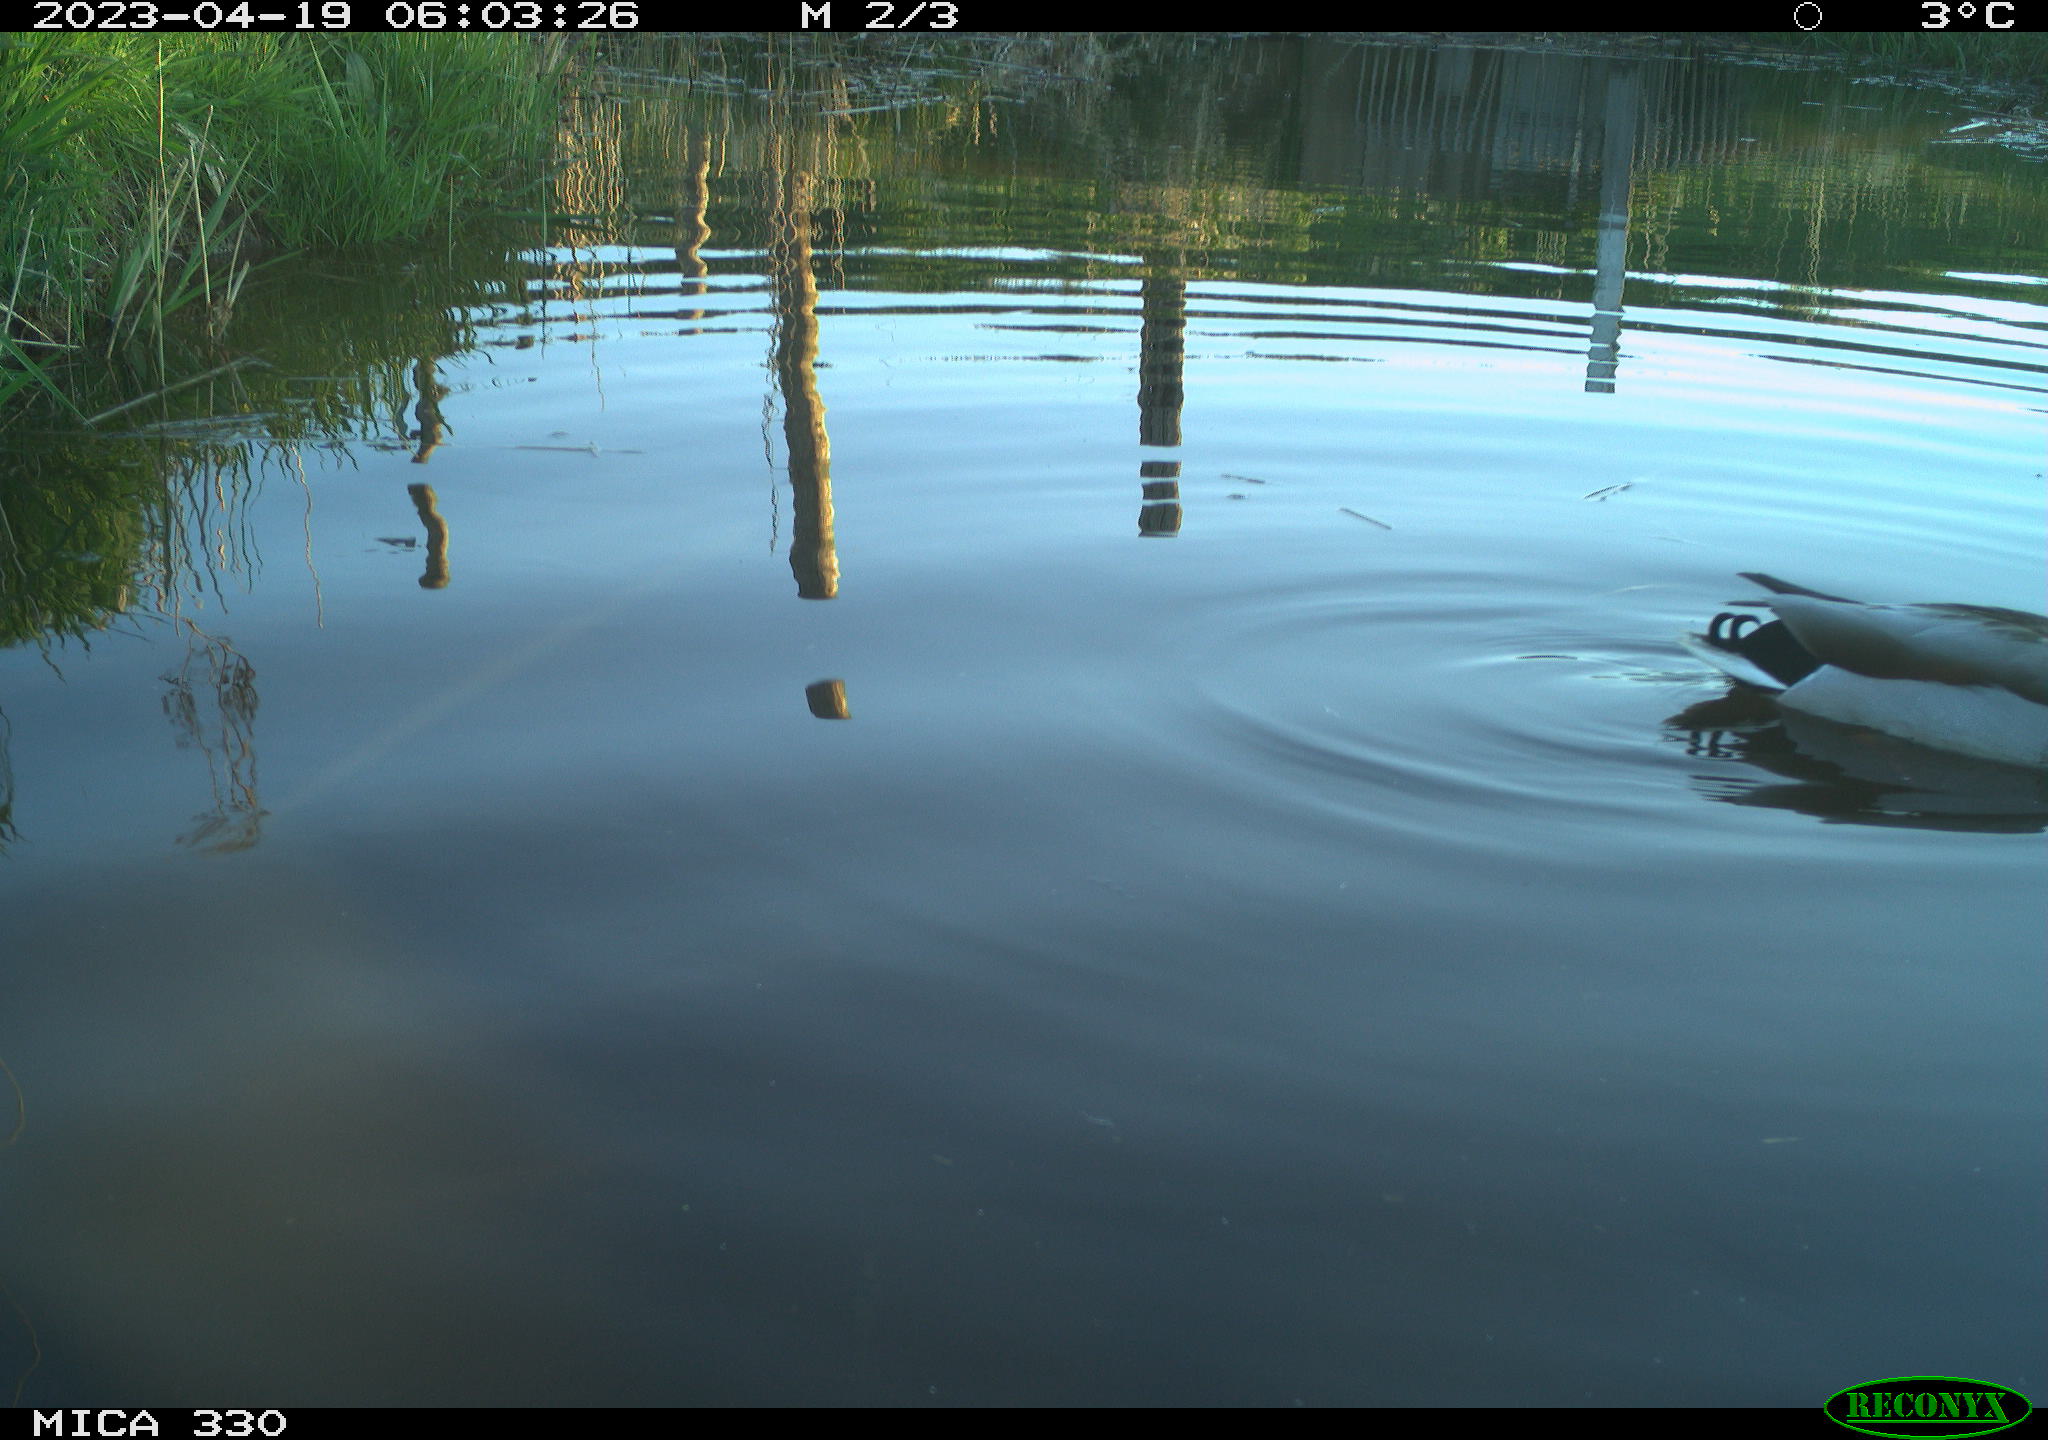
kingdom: Animalia
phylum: Chordata
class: Aves
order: Anseriformes
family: Anatidae
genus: Anas
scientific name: Anas
